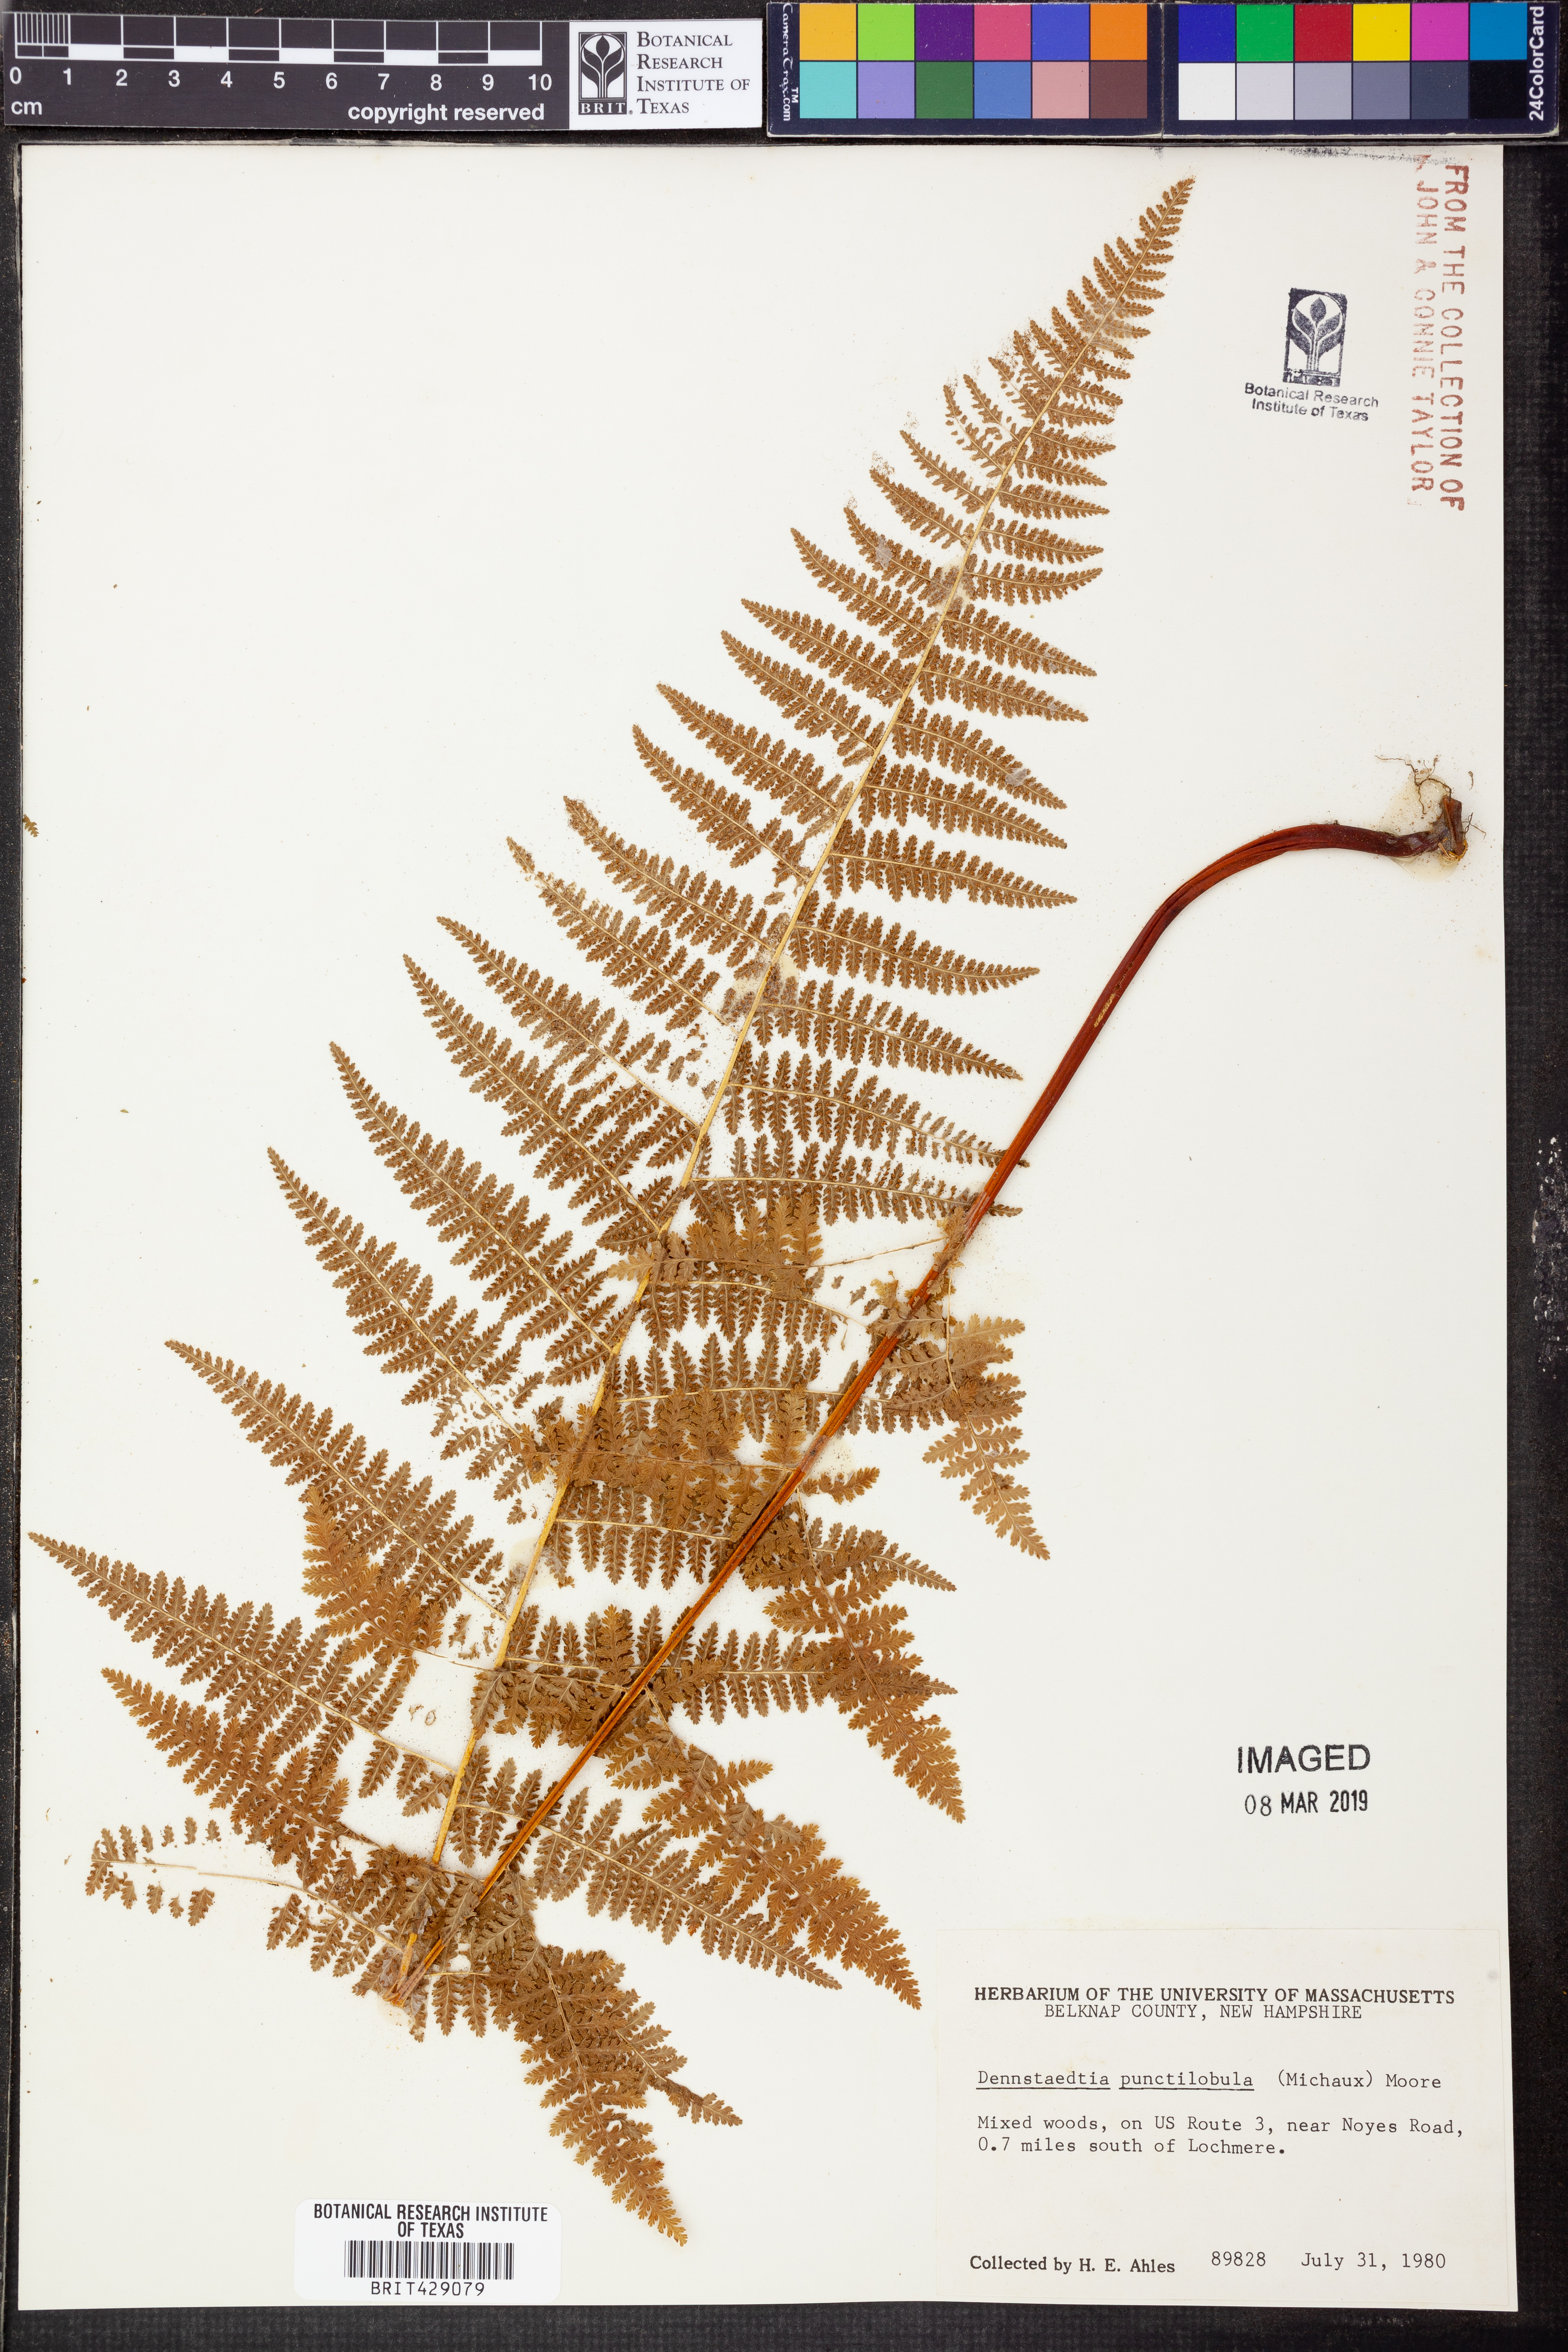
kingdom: Plantae
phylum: Tracheophyta
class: Polypodiopsida
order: Polypodiales
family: Dennstaedtiaceae
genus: Sitobolium
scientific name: Sitobolium punctilobum
